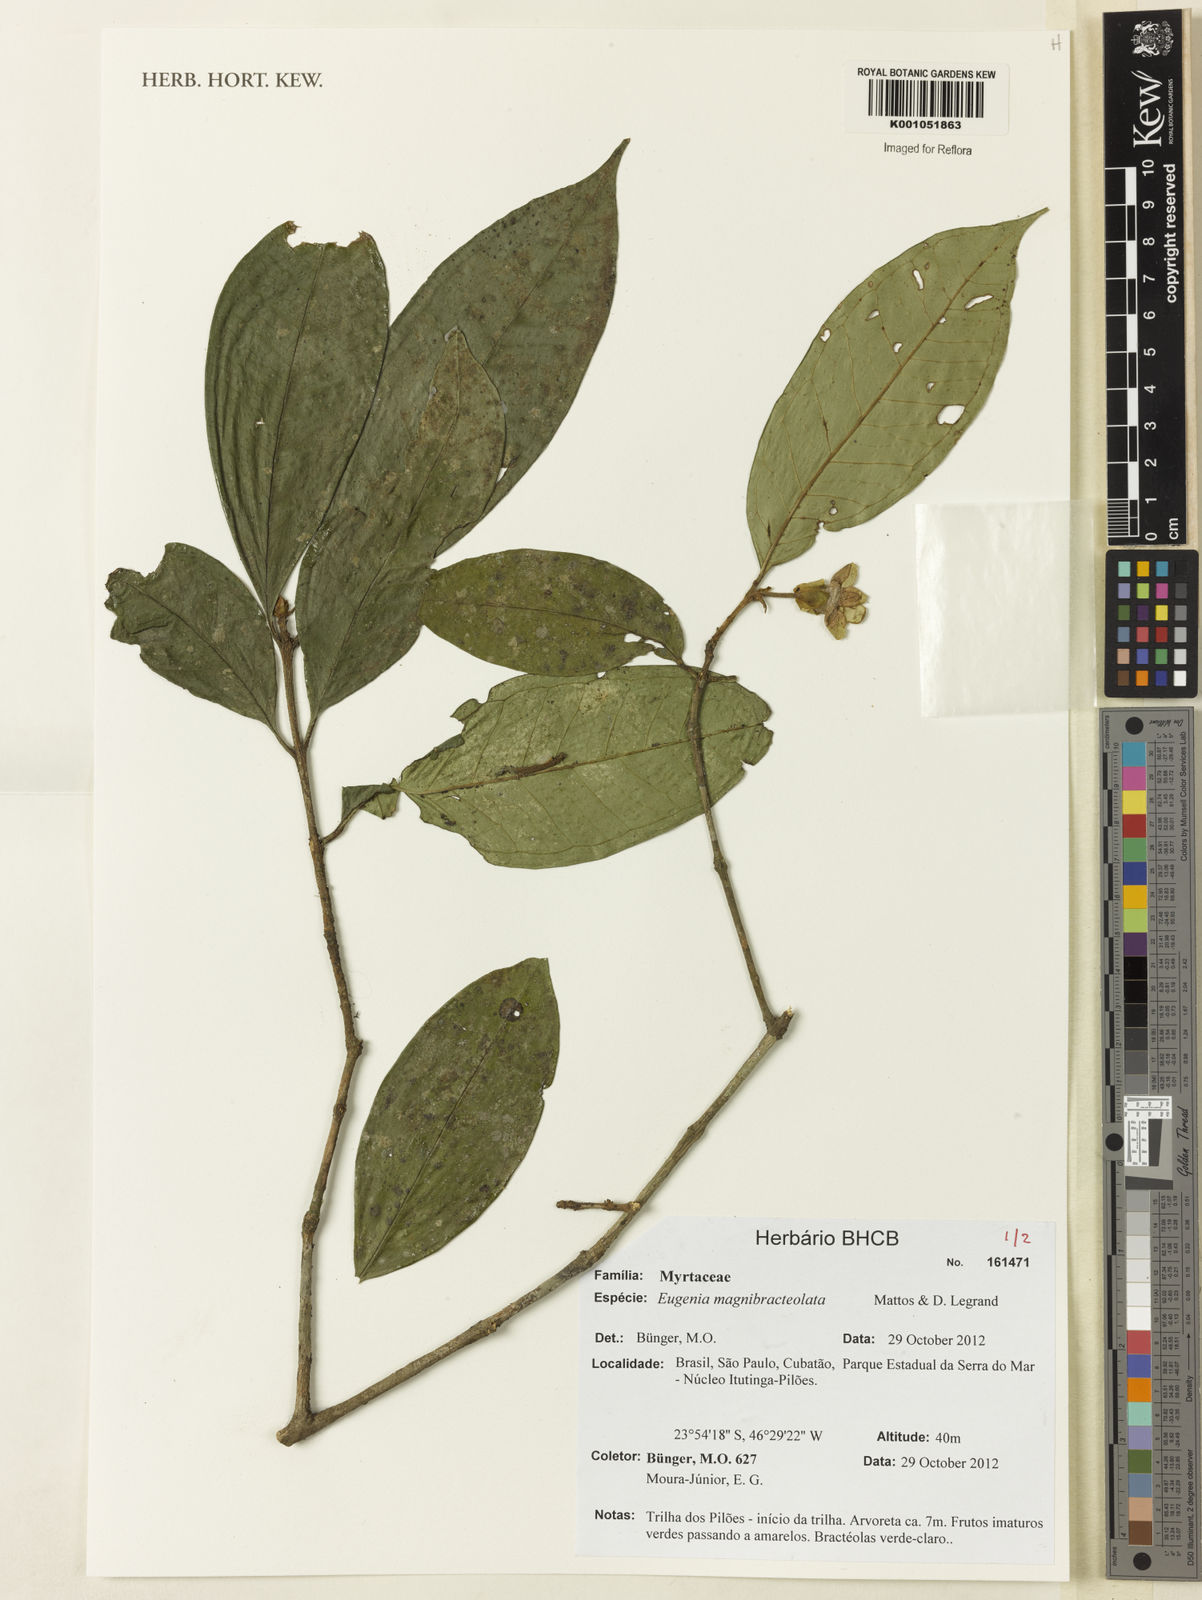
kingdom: Plantae
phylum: Tracheophyta
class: Magnoliopsida
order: Myrtales
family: Myrtaceae
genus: Eugenia
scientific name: Eugenia magnibracteolata
